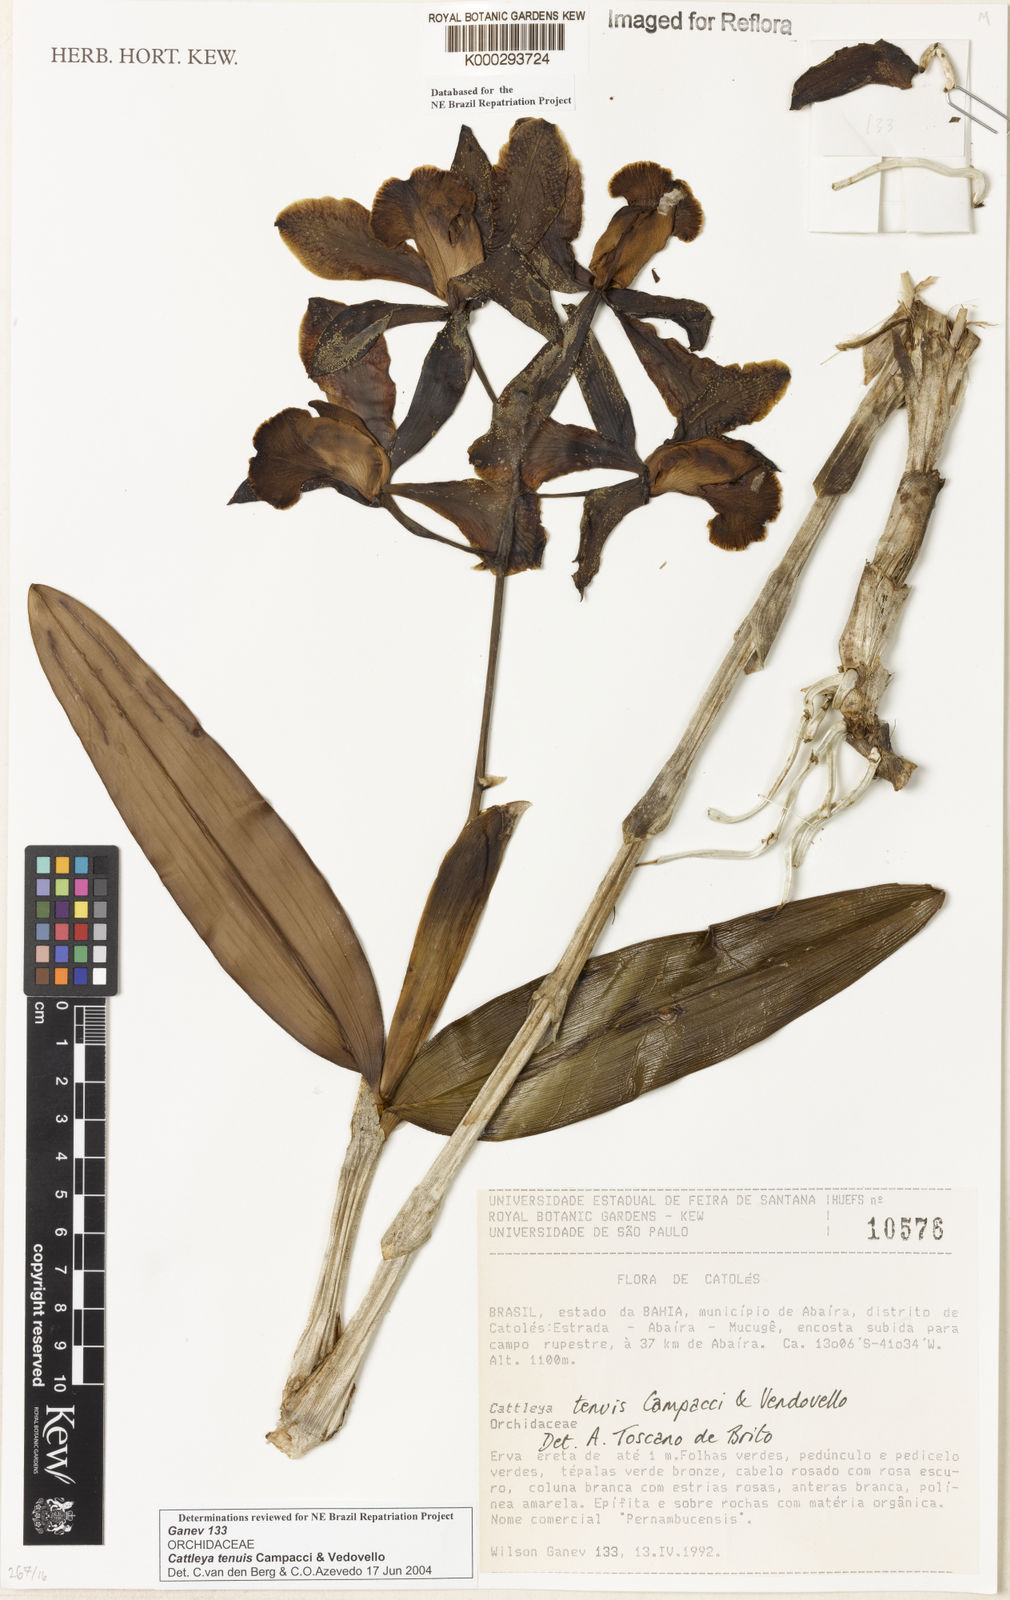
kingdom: Plantae
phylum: Tracheophyta
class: Liliopsida
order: Asparagales
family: Orchidaceae
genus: Cattleya
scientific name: Cattleya tenuis
